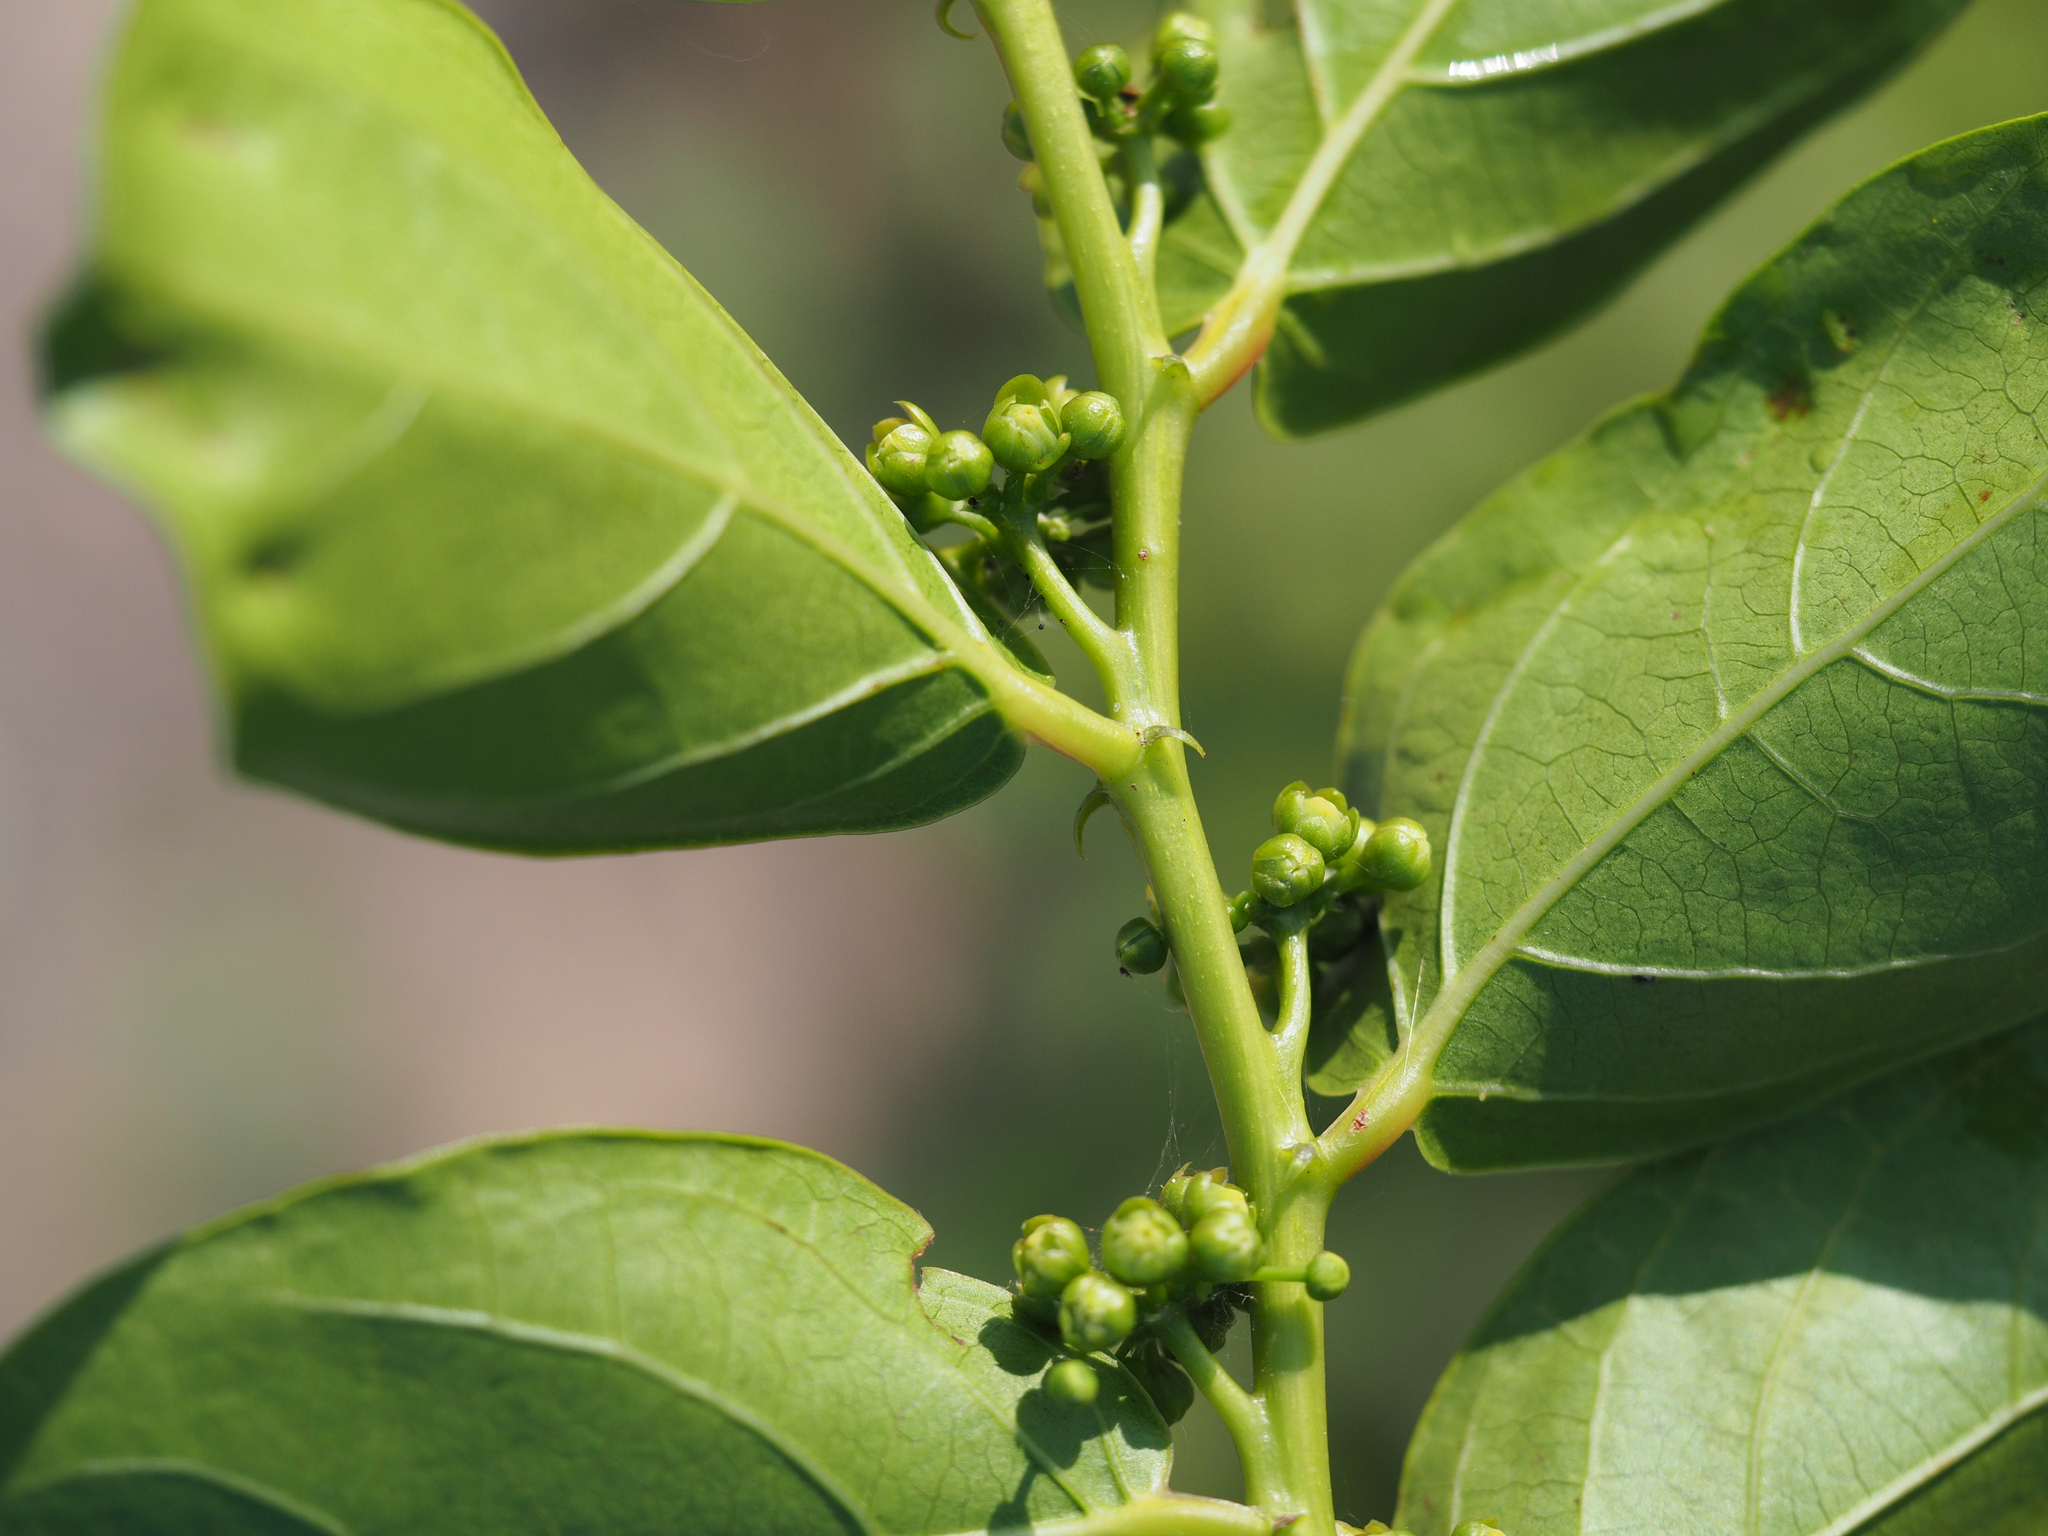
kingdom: Plantae
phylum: Tracheophyta
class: Magnoliopsida
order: Malpighiales
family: Phyllanthaceae
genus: Glochidion
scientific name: Glochidion zeylanicum
